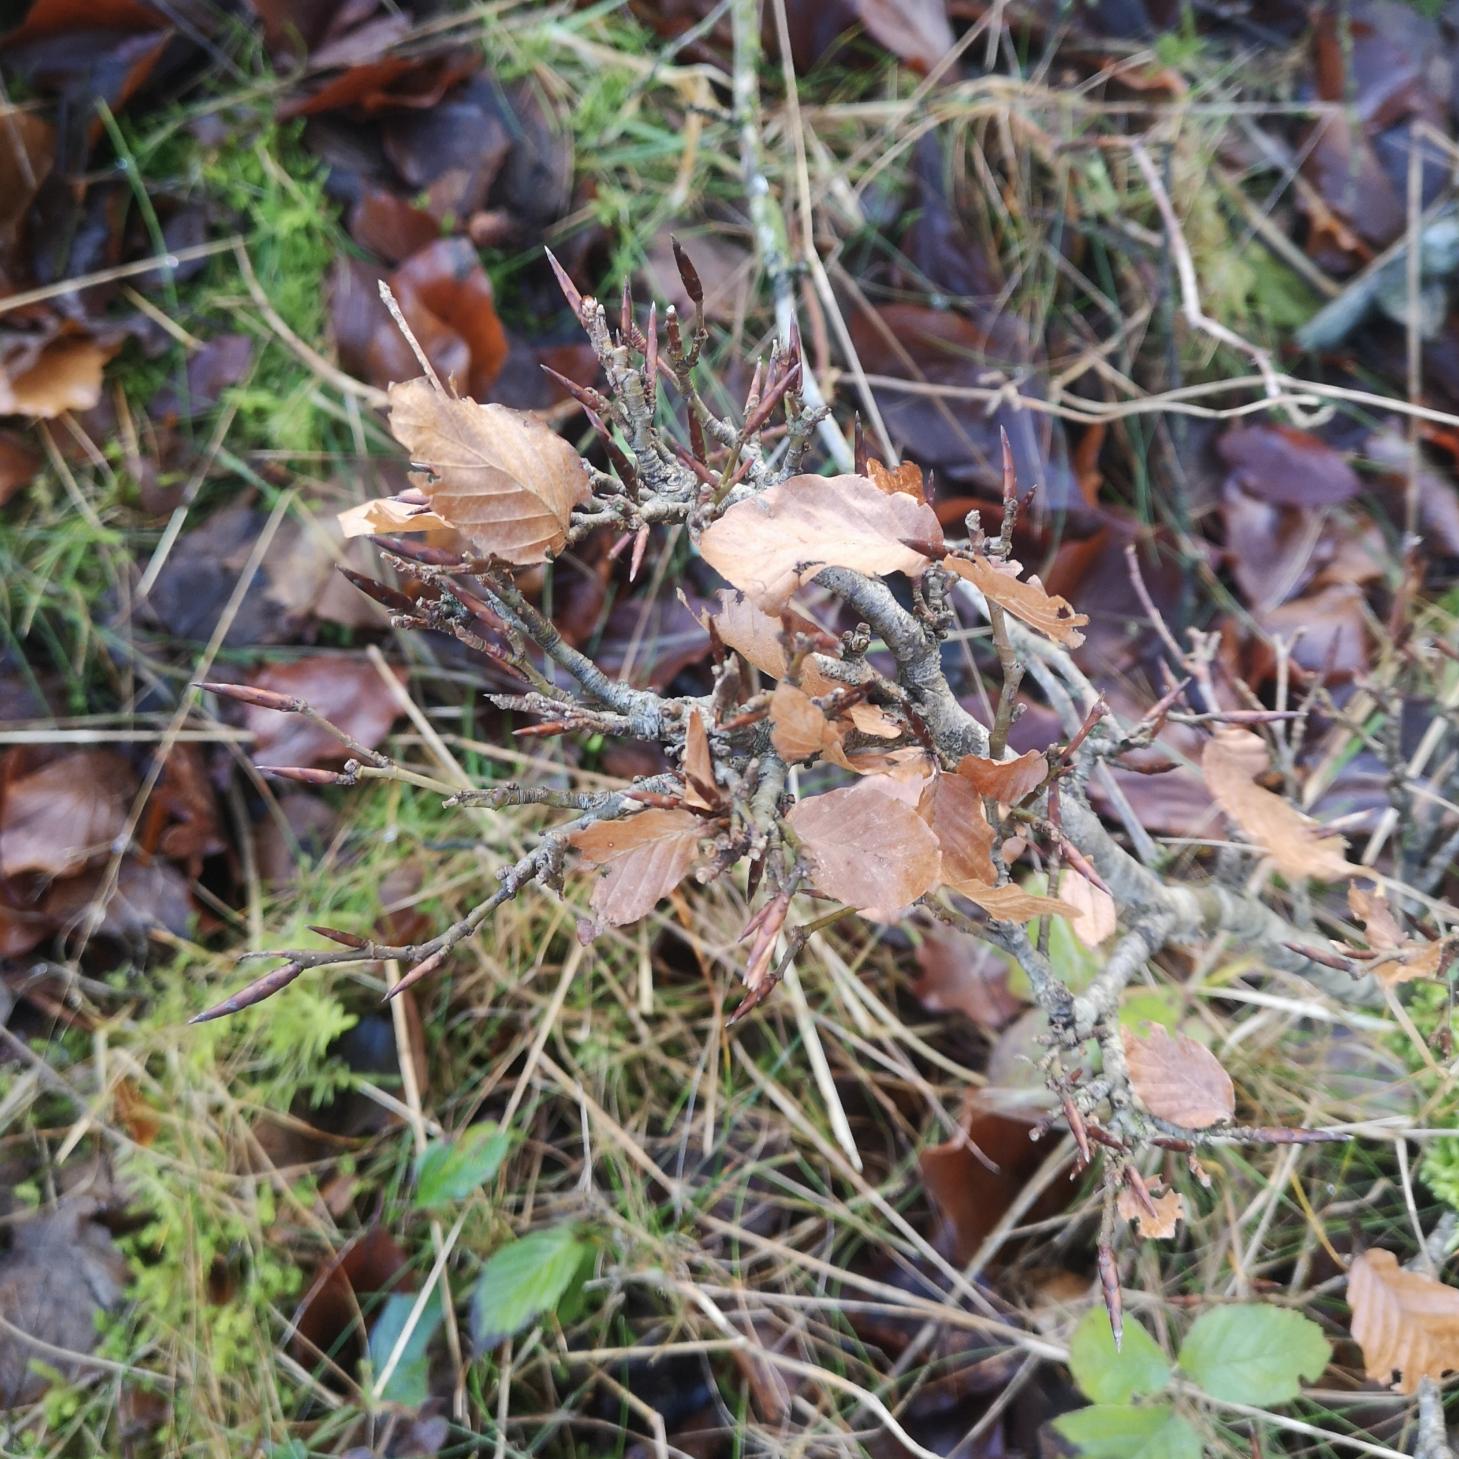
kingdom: Plantae
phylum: Tracheophyta
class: Magnoliopsida
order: Fagales
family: Fagaceae
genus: Fagus
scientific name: Fagus sylvatica
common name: Bøg
